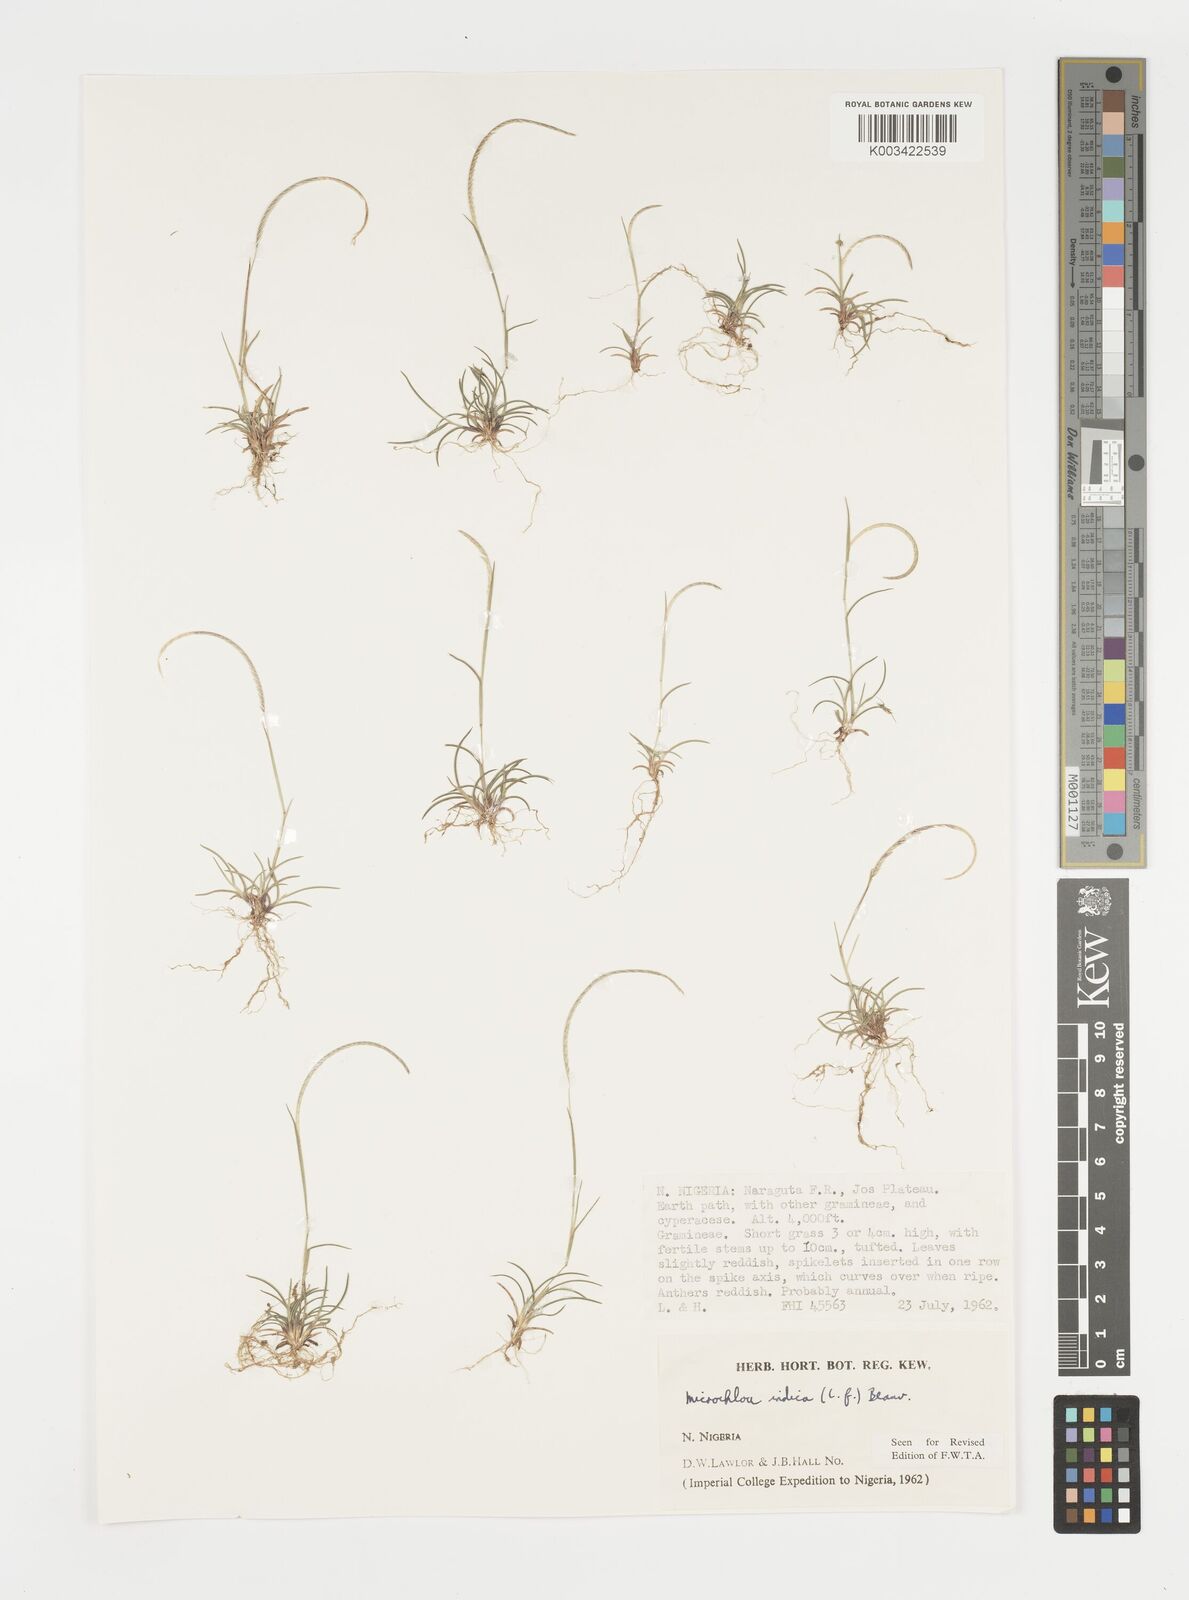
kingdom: Plantae
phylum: Tracheophyta
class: Liliopsida
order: Poales
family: Poaceae
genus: Microchloa
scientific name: Microchloa indica
